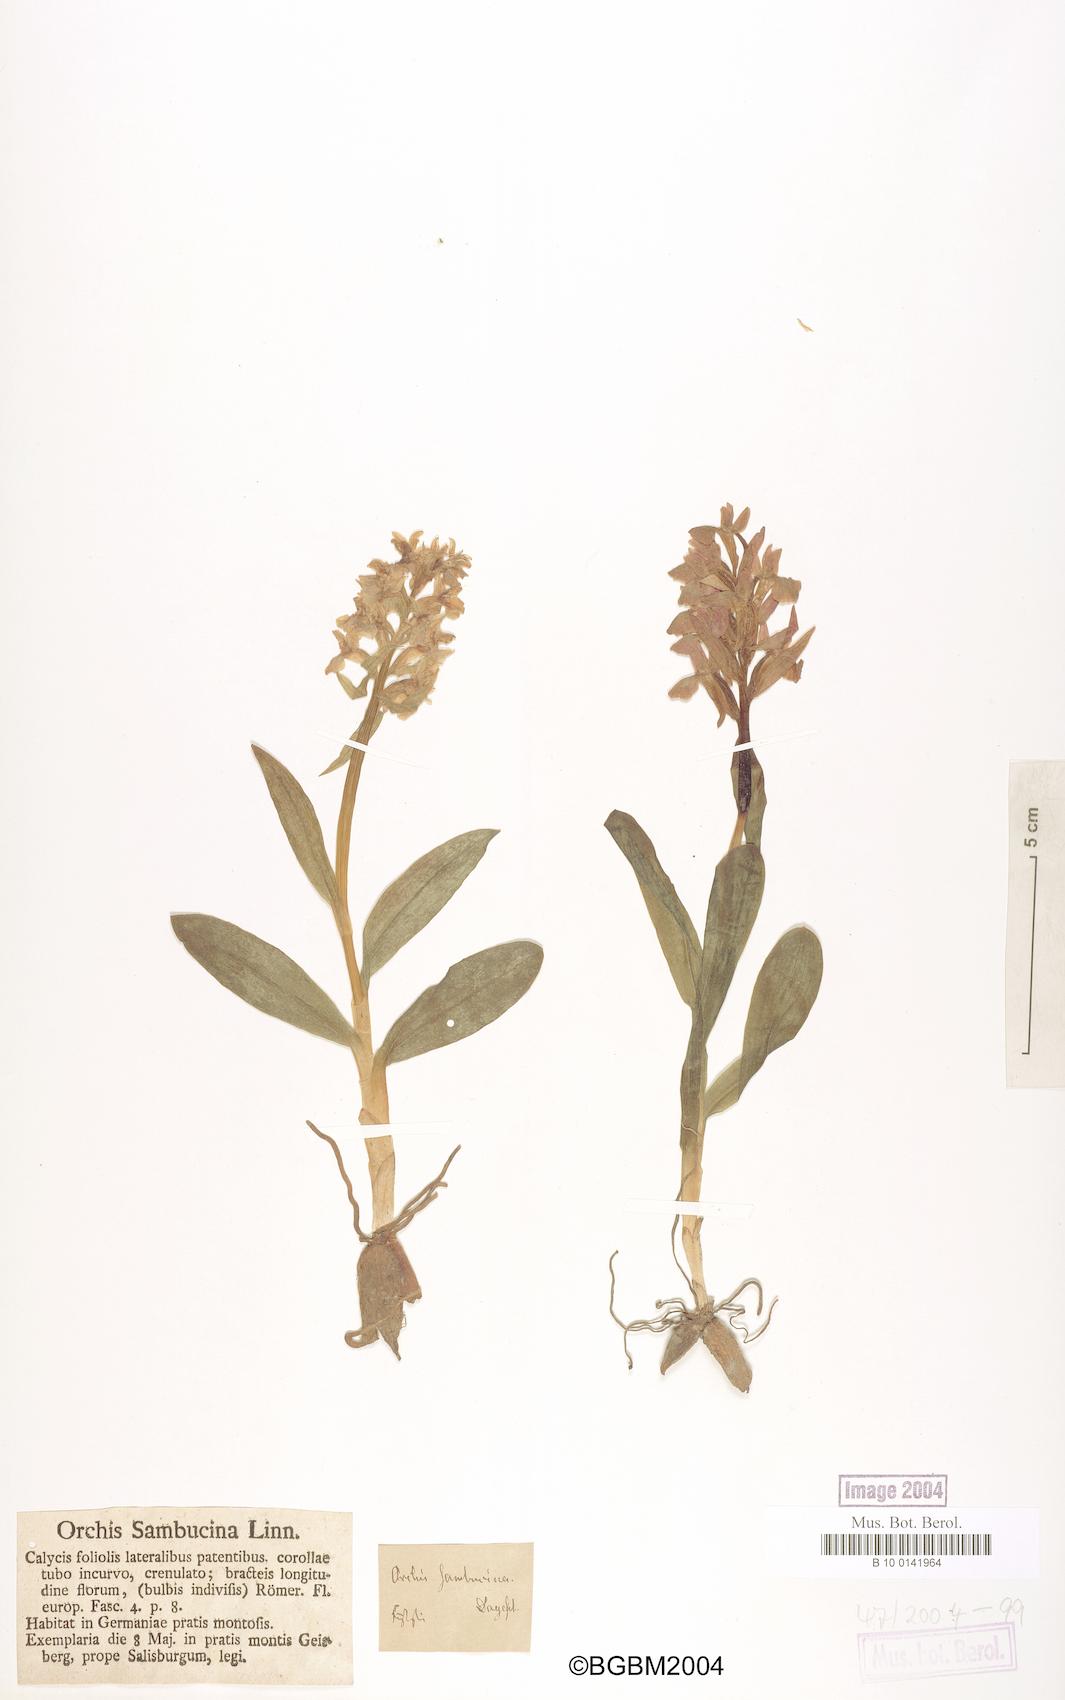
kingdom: Plantae
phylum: Tracheophyta
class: Liliopsida
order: Asparagales
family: Orchidaceae
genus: Dactylorhiza
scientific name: Dactylorhiza sambucina
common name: Elder-flowered orchid
